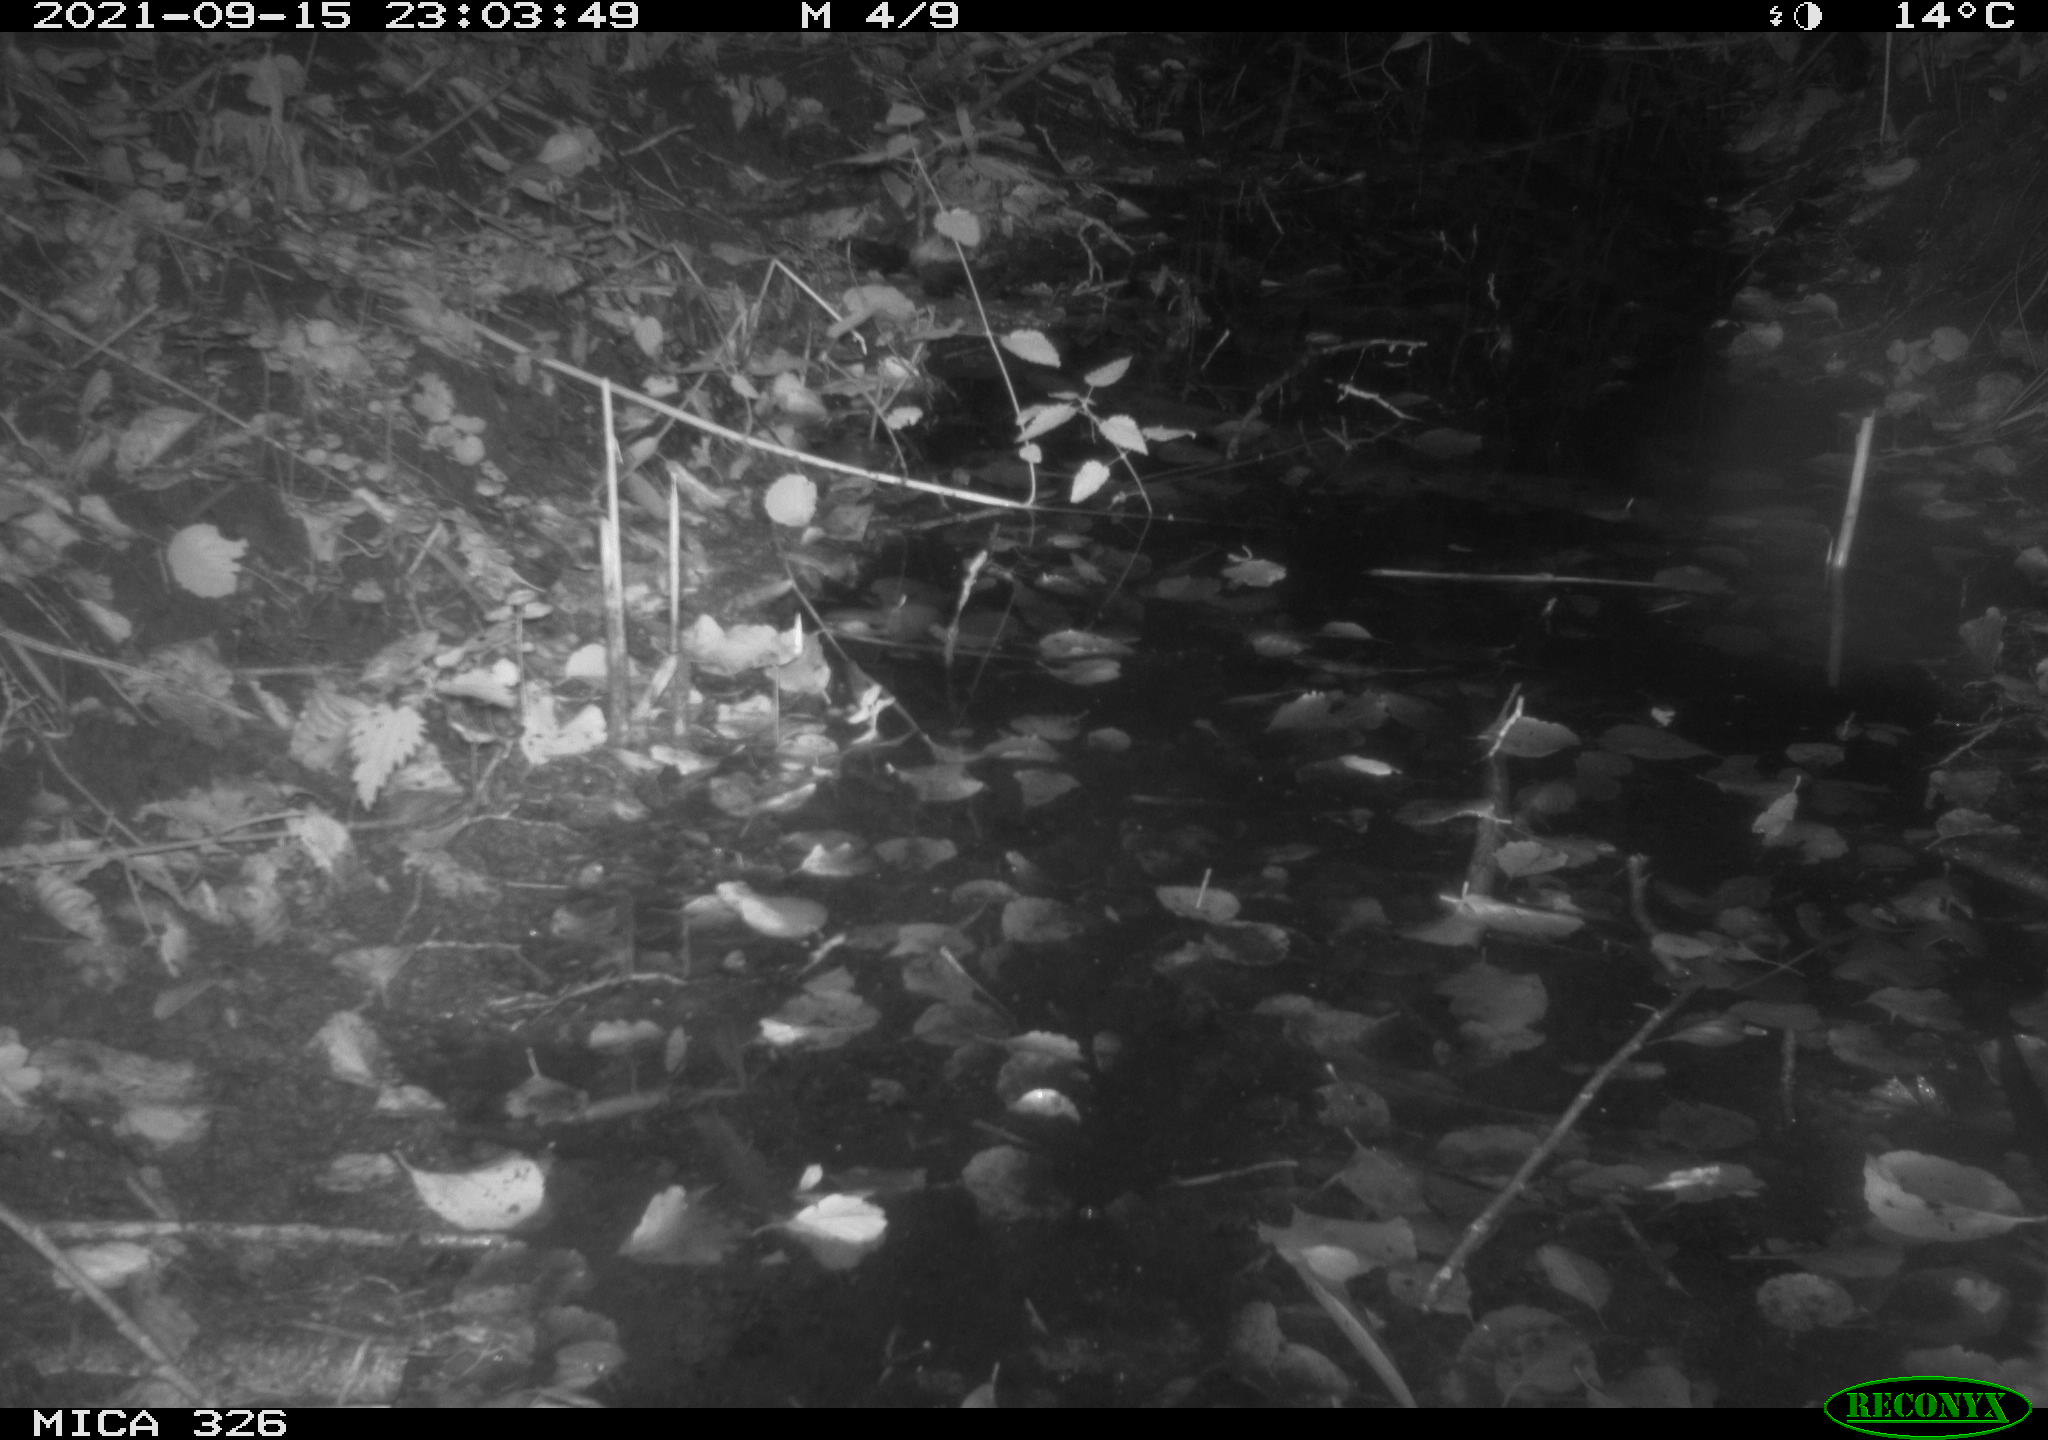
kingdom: Animalia
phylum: Chordata
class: Mammalia
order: Rodentia
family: Myocastoridae
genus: Myocastor
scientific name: Myocastor coypus
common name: Coypu
